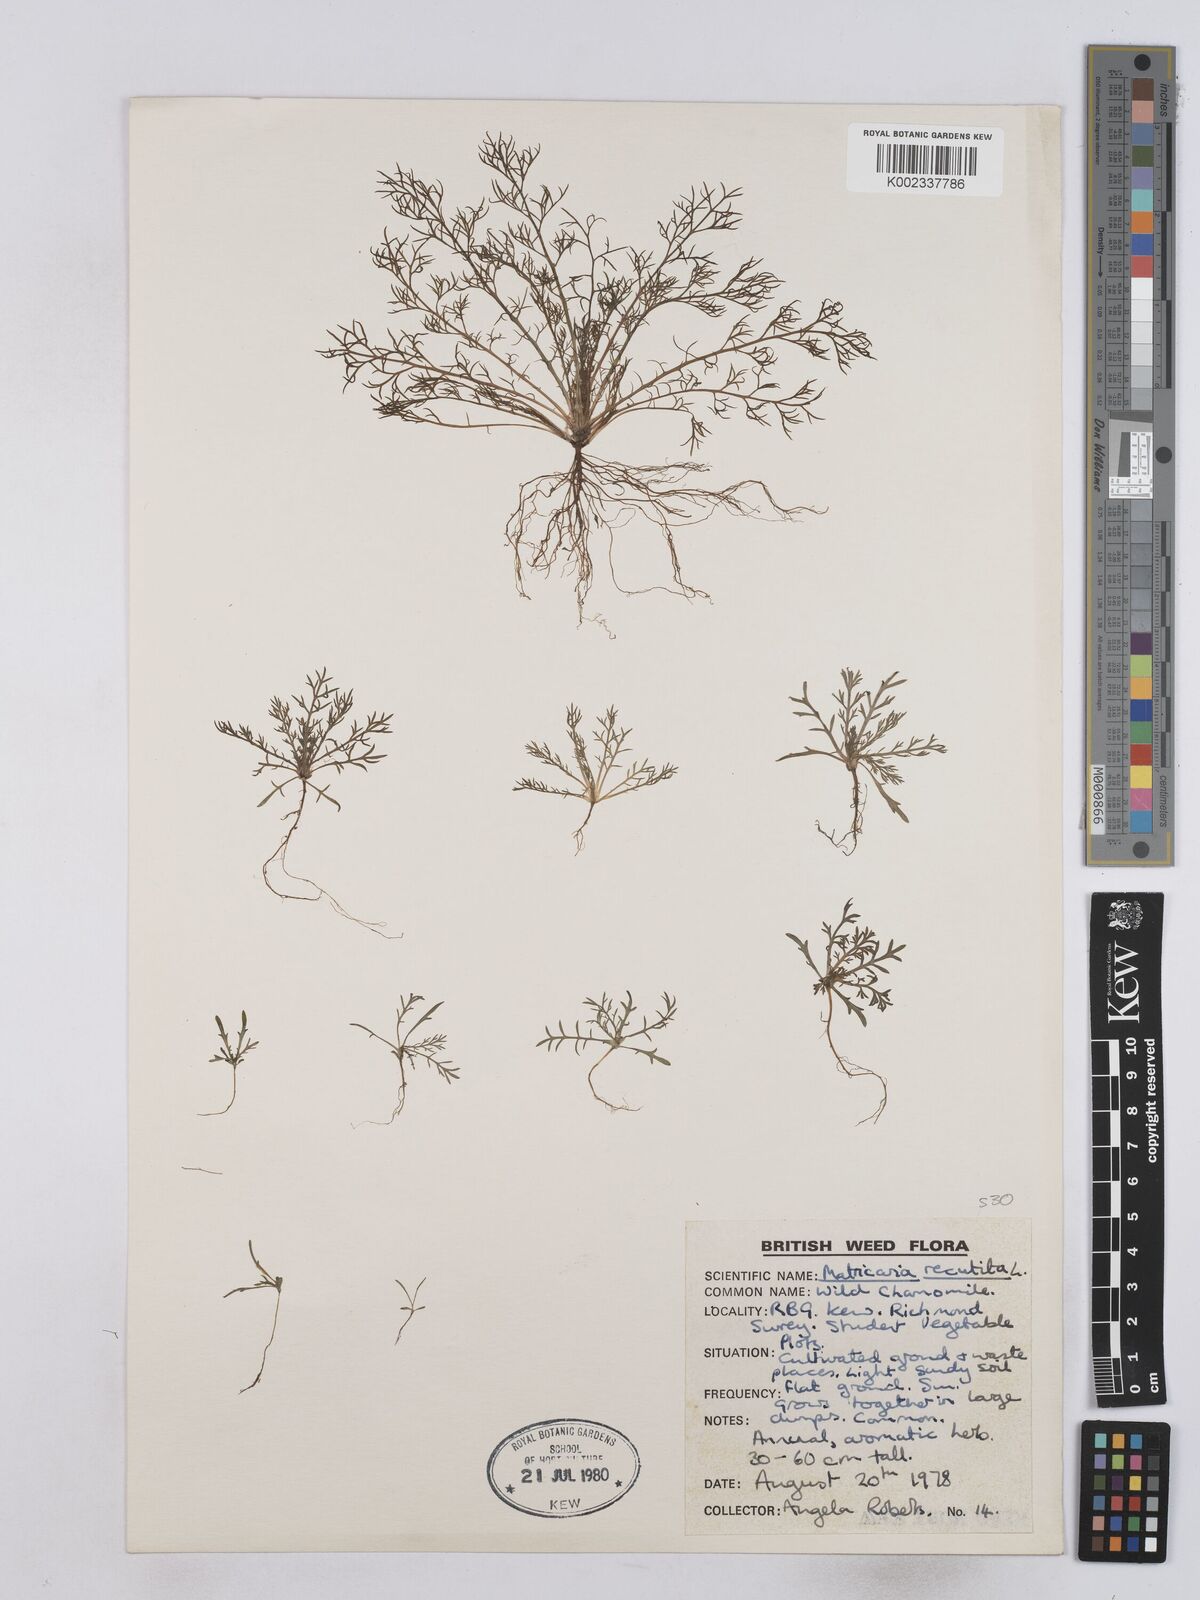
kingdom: Plantae
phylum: Tracheophyta
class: Magnoliopsida
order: Asterales
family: Asteraceae
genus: Matricaria
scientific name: Matricaria chamomilla
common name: Scented mayweed
